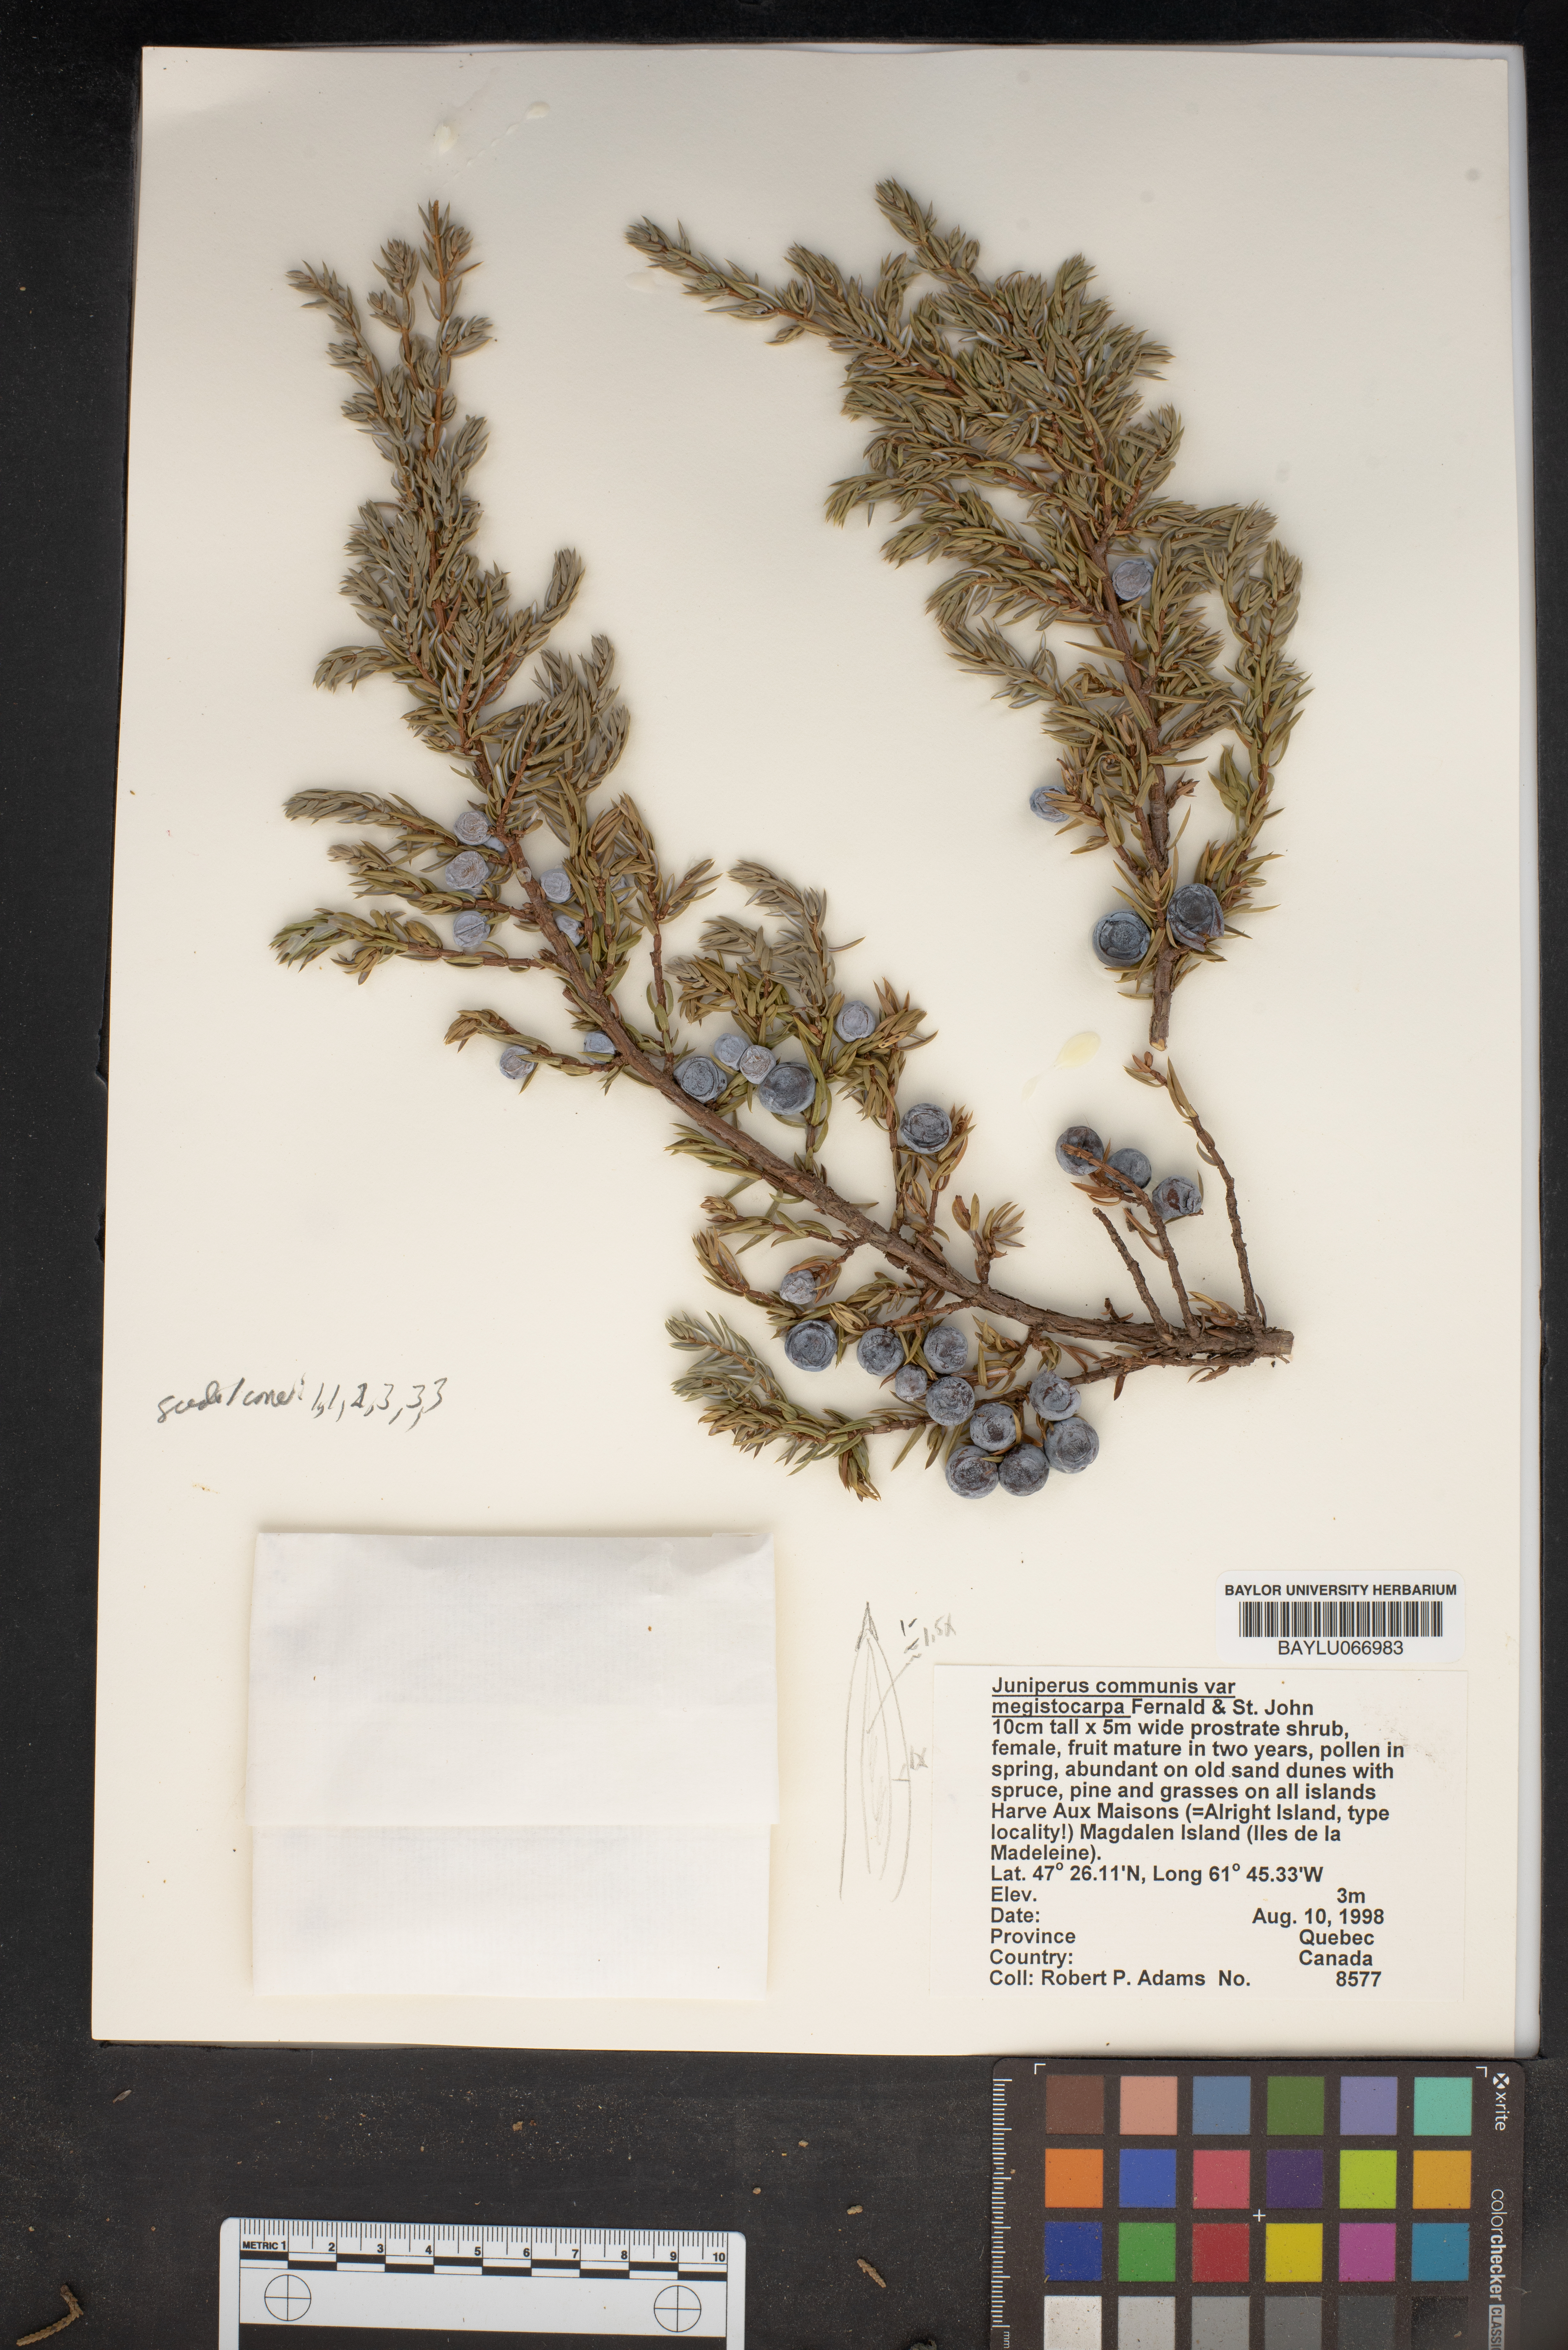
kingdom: Plantae
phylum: Tracheophyta
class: Pinopsida
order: Pinales
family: Cupressaceae
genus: Juniperus
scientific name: Juniperus communis
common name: Common juniper
